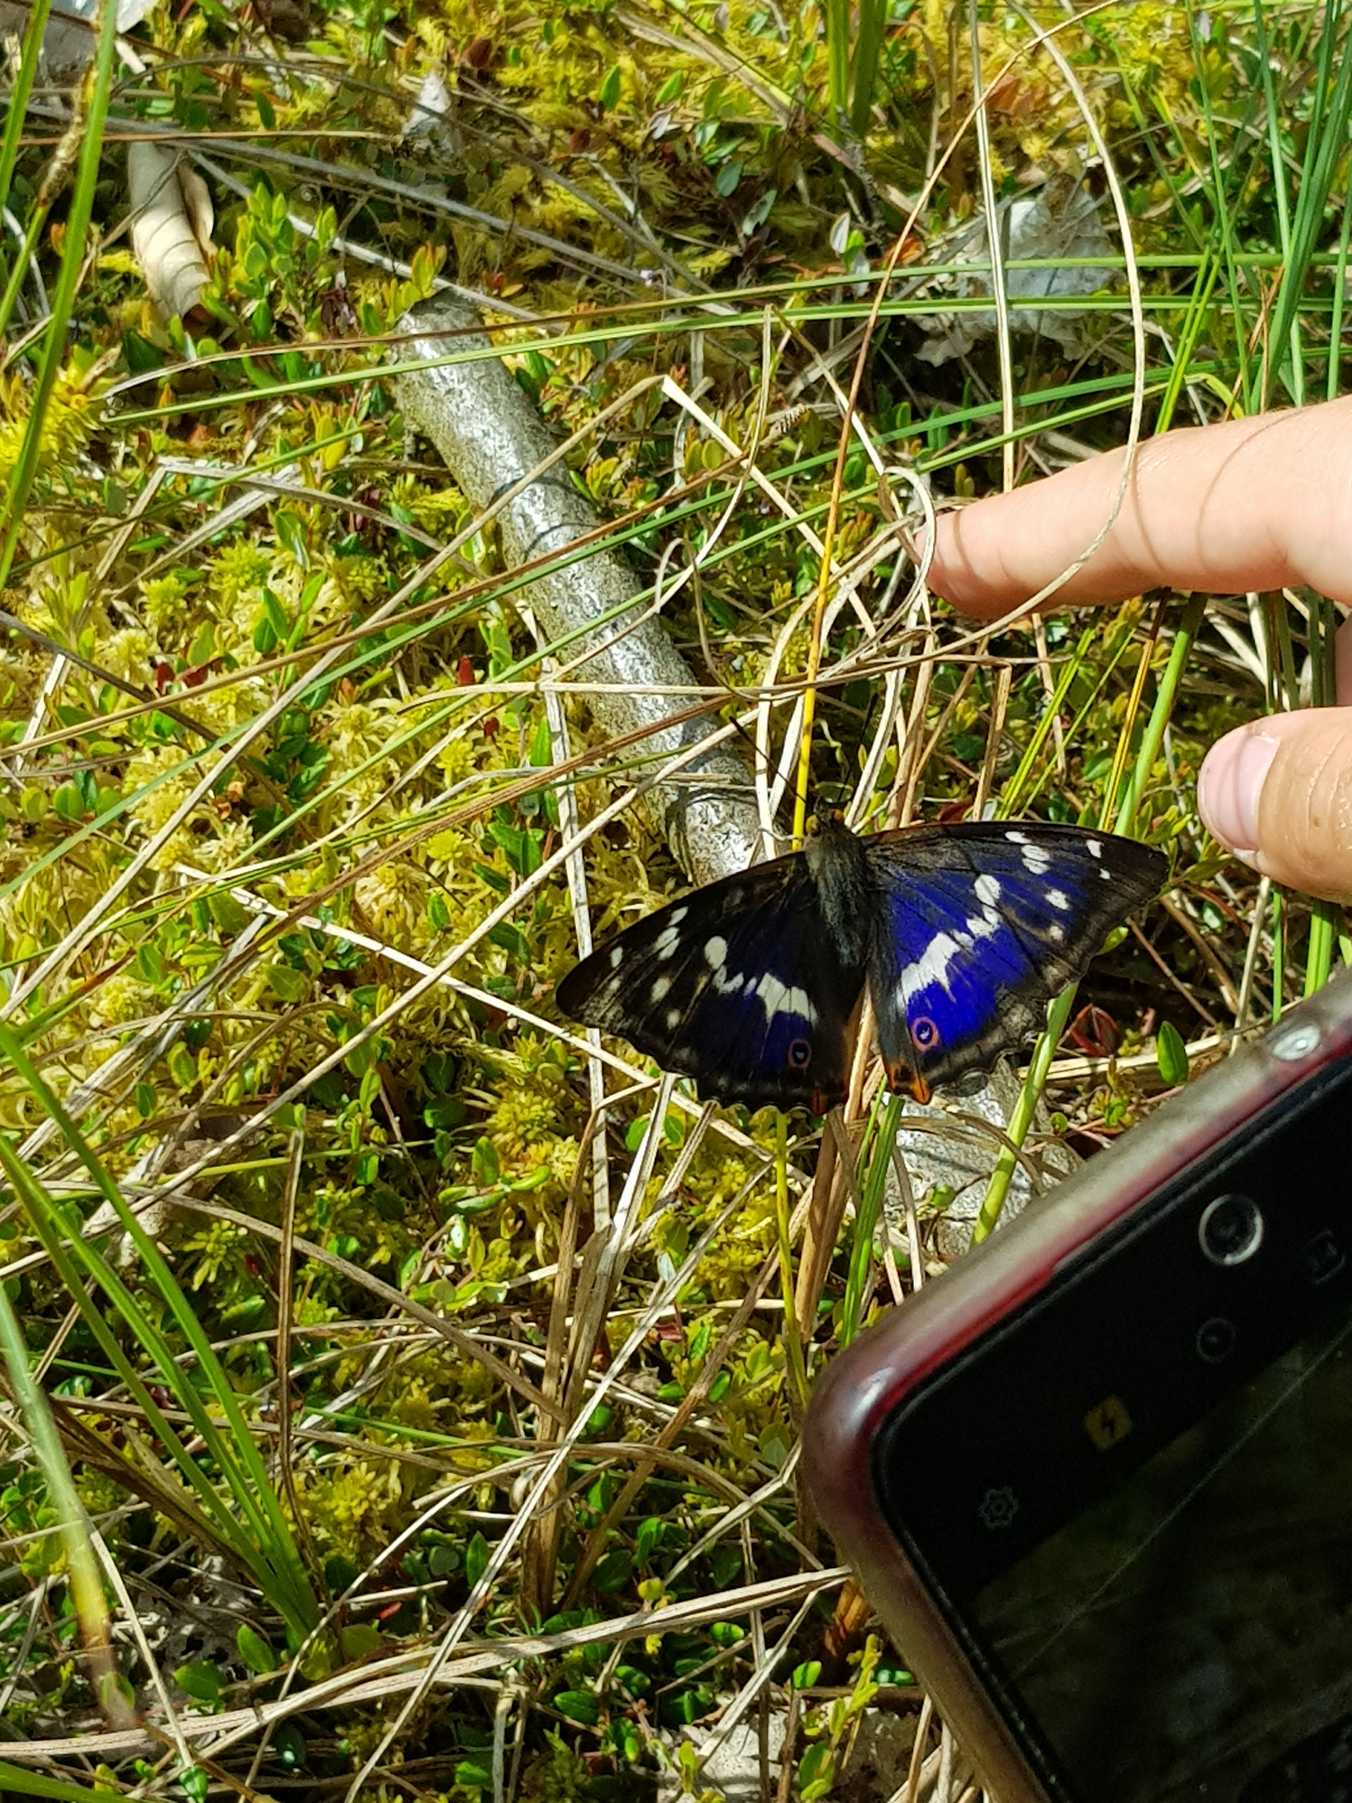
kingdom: Animalia
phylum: Arthropoda
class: Insecta
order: Lepidoptera
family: Nymphalidae
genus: Apatura
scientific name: Apatura iris
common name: Iris
